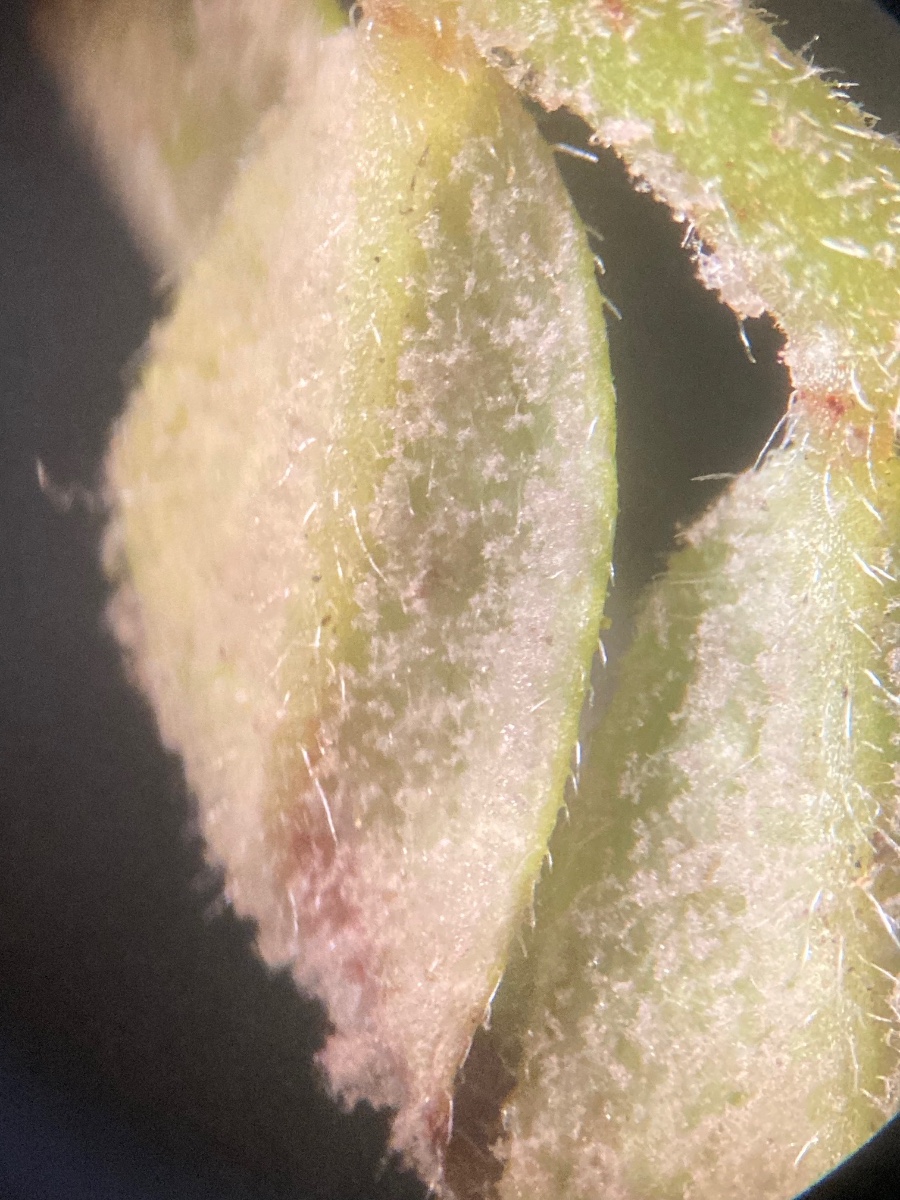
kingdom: Chromista
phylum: Oomycota
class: Peronosporea
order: Peronosporales
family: Peronosporaceae
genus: Peronospora
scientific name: Peronospora viciae
